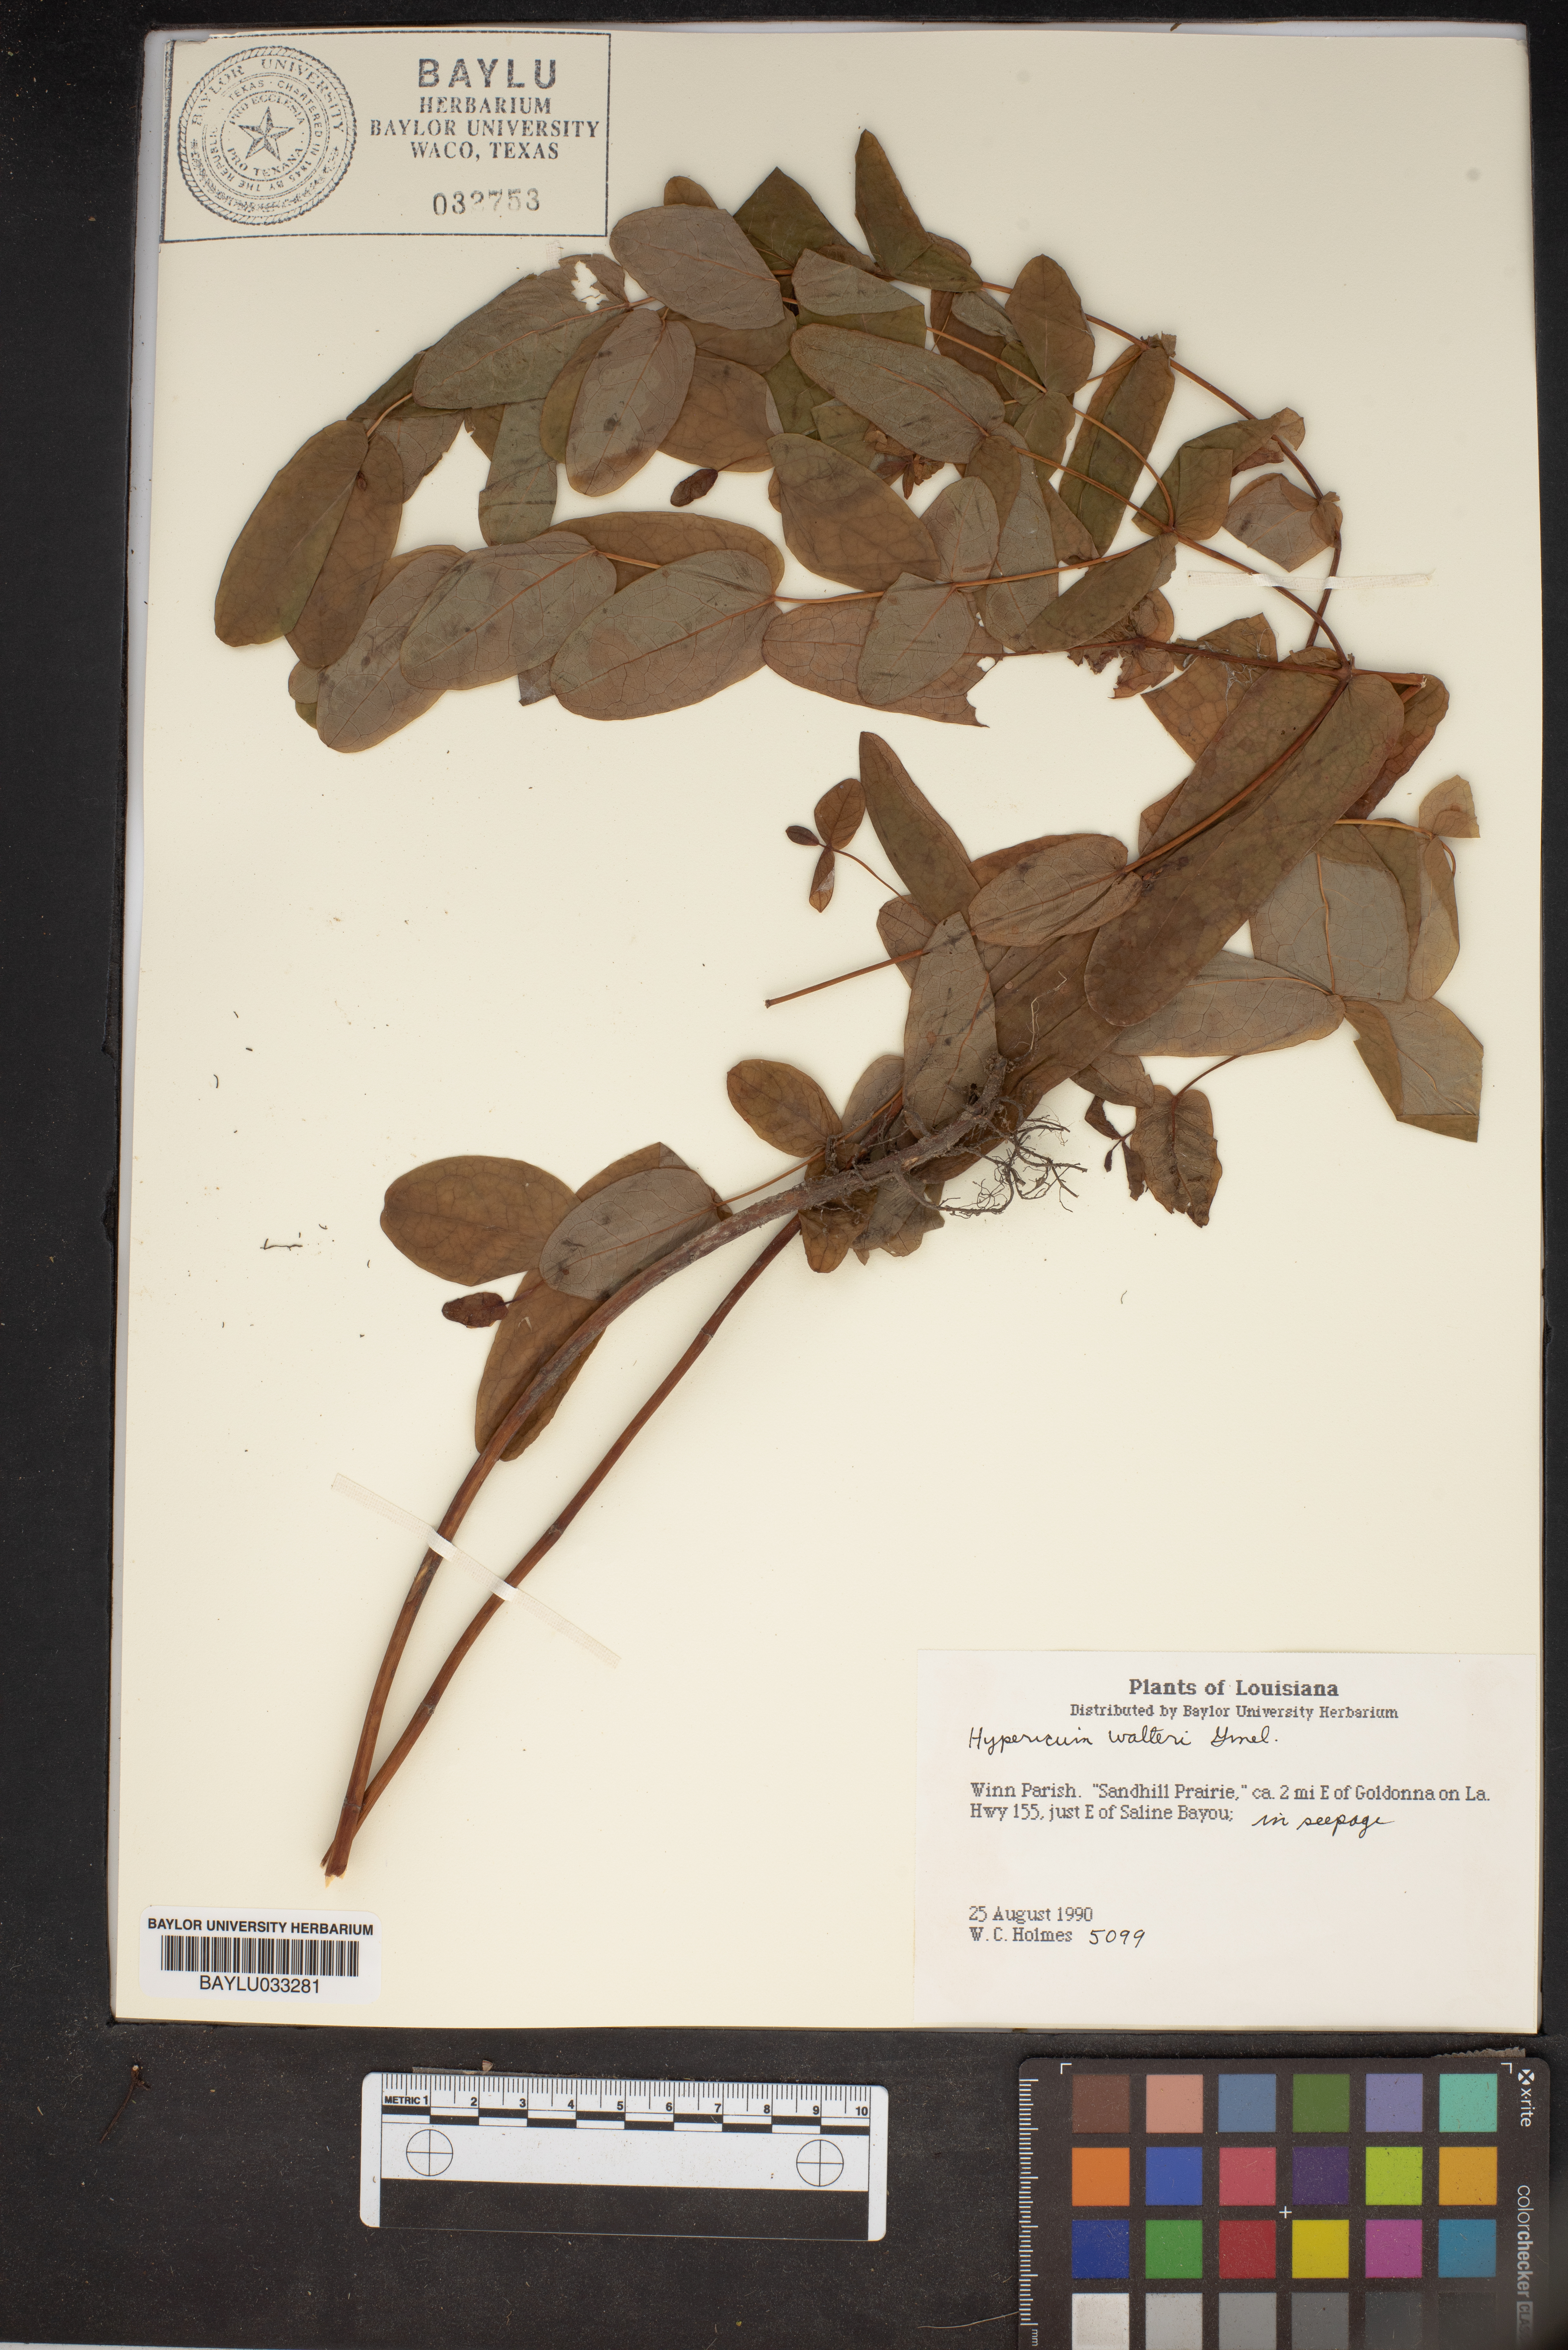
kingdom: Plantae
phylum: Tracheophyta
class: Magnoliopsida
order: Malpighiales
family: Hypericaceae
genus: Triadenum
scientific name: Triadenum walteri
